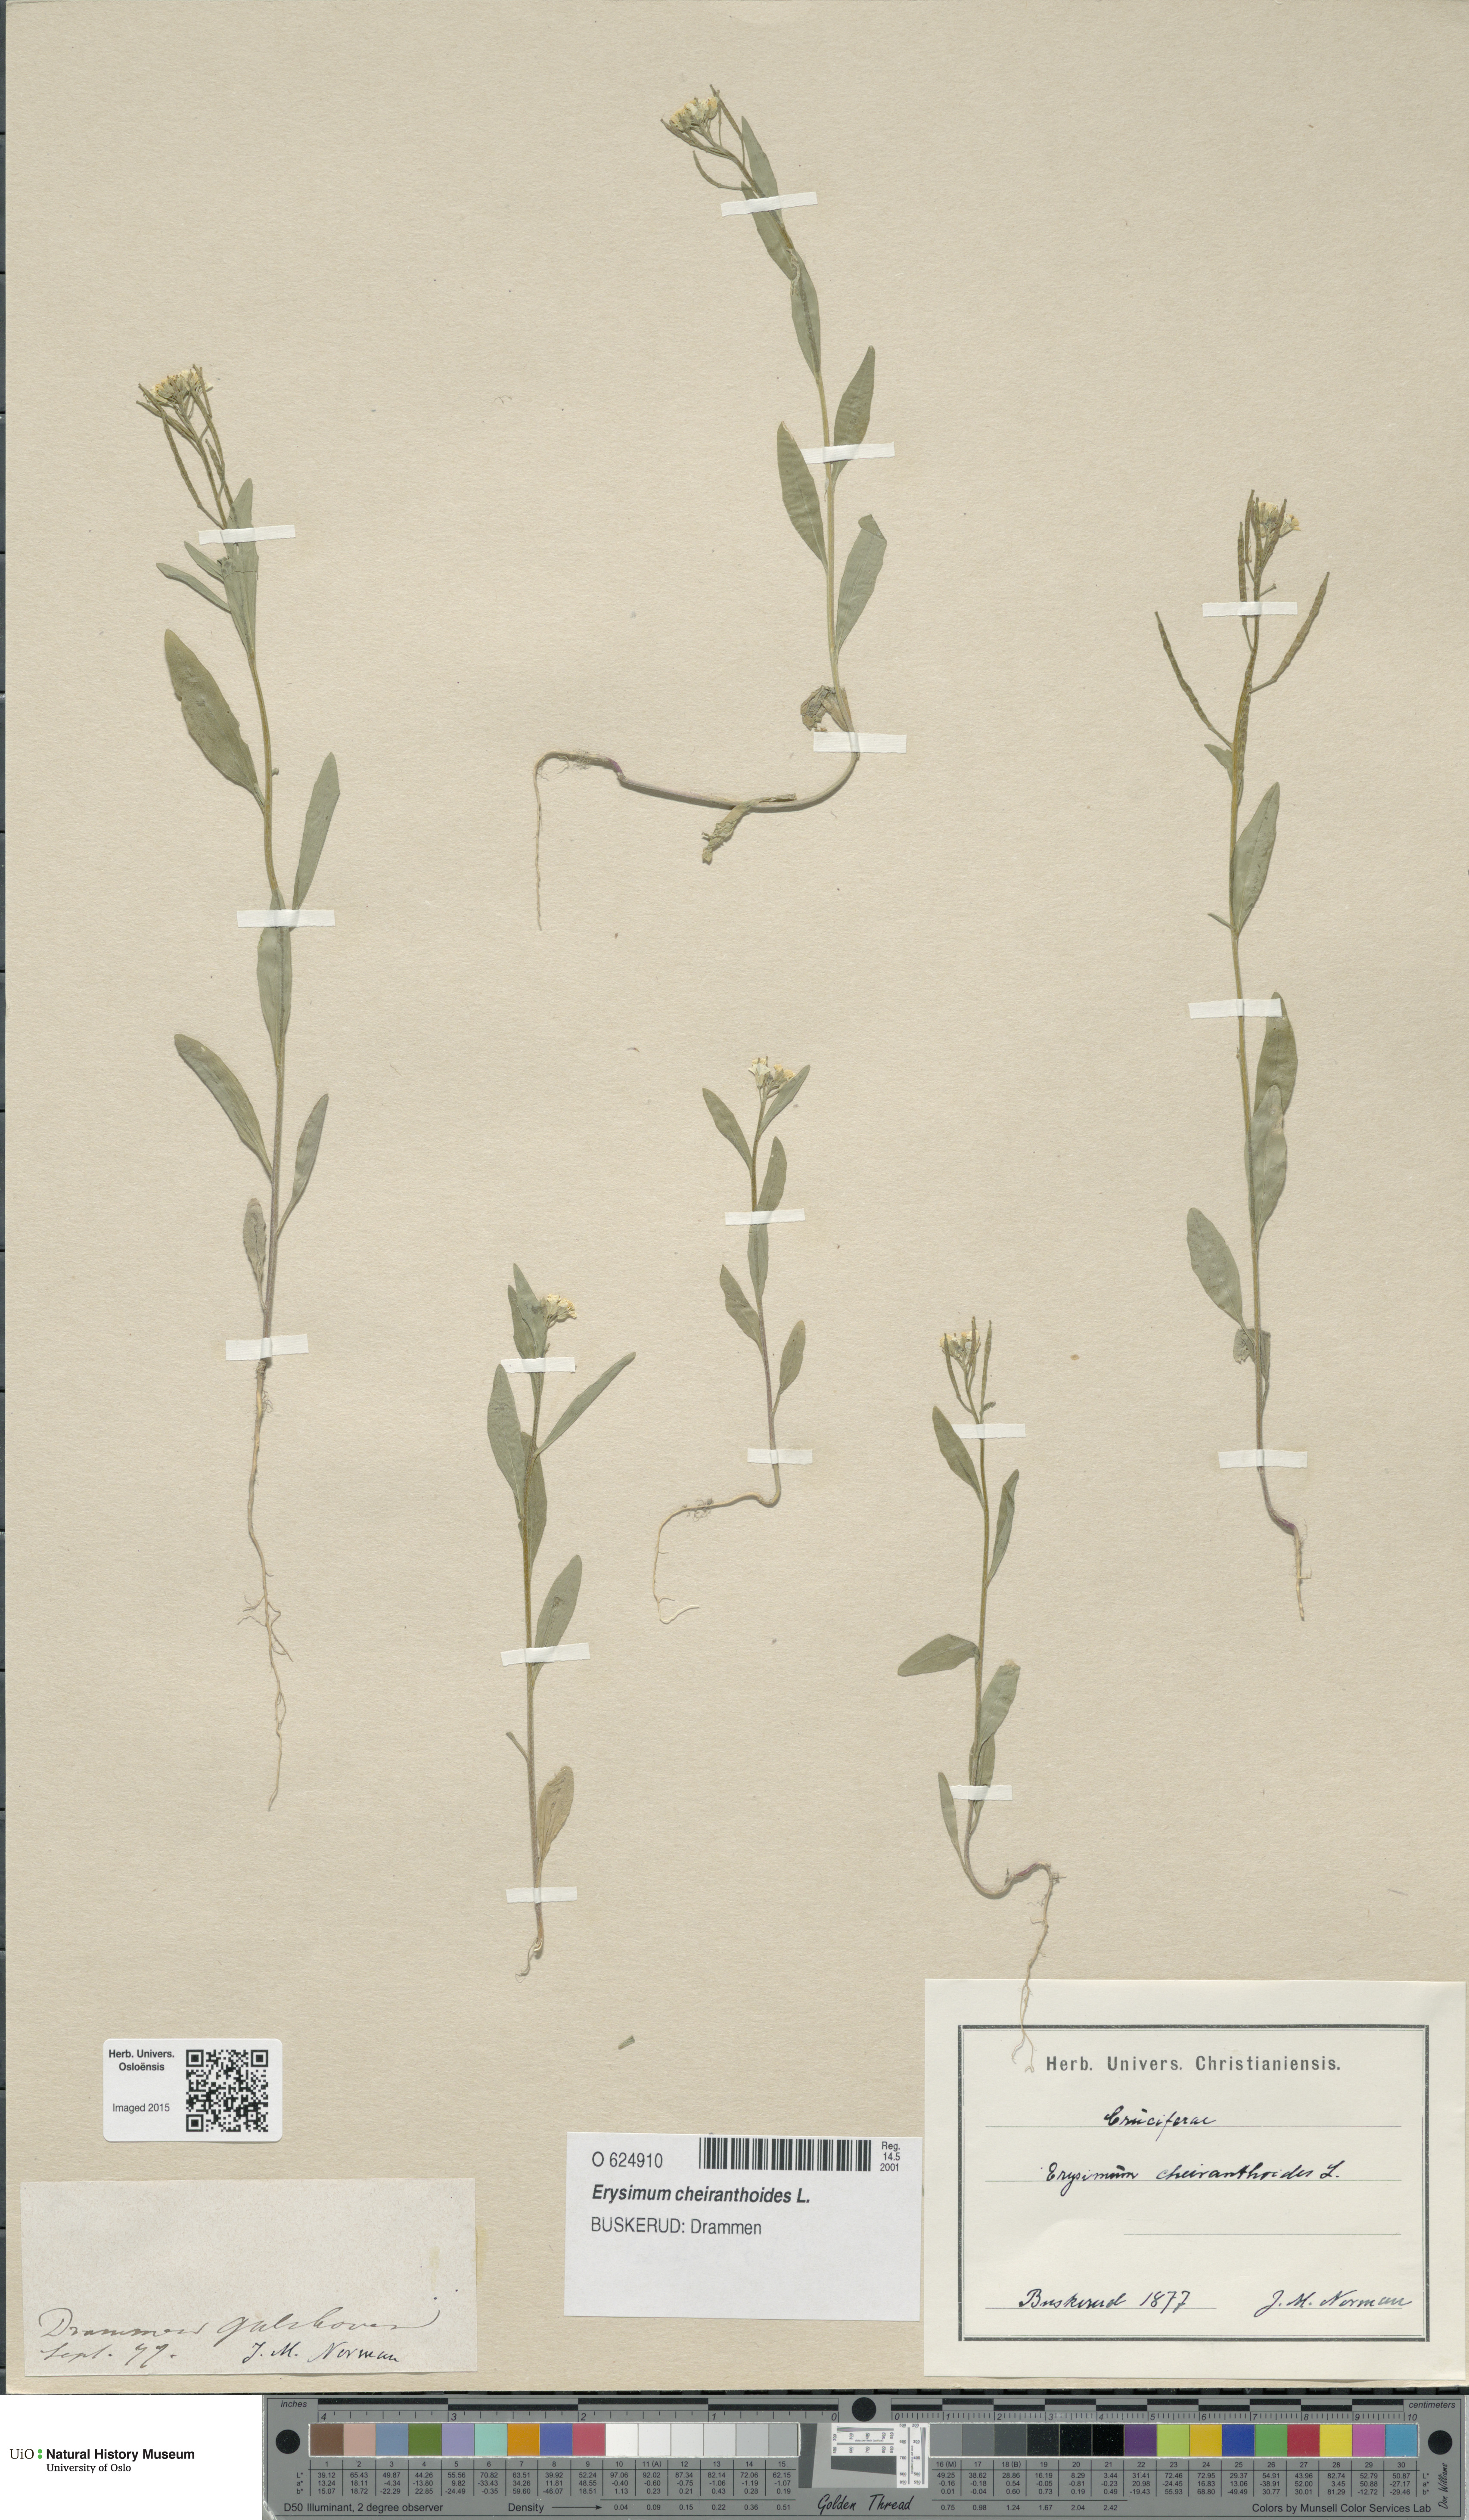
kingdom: Plantae
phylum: Tracheophyta
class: Magnoliopsida
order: Brassicales
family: Brassicaceae
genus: Erysimum
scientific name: Erysimum cheiranthoides
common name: Treacle mustard
